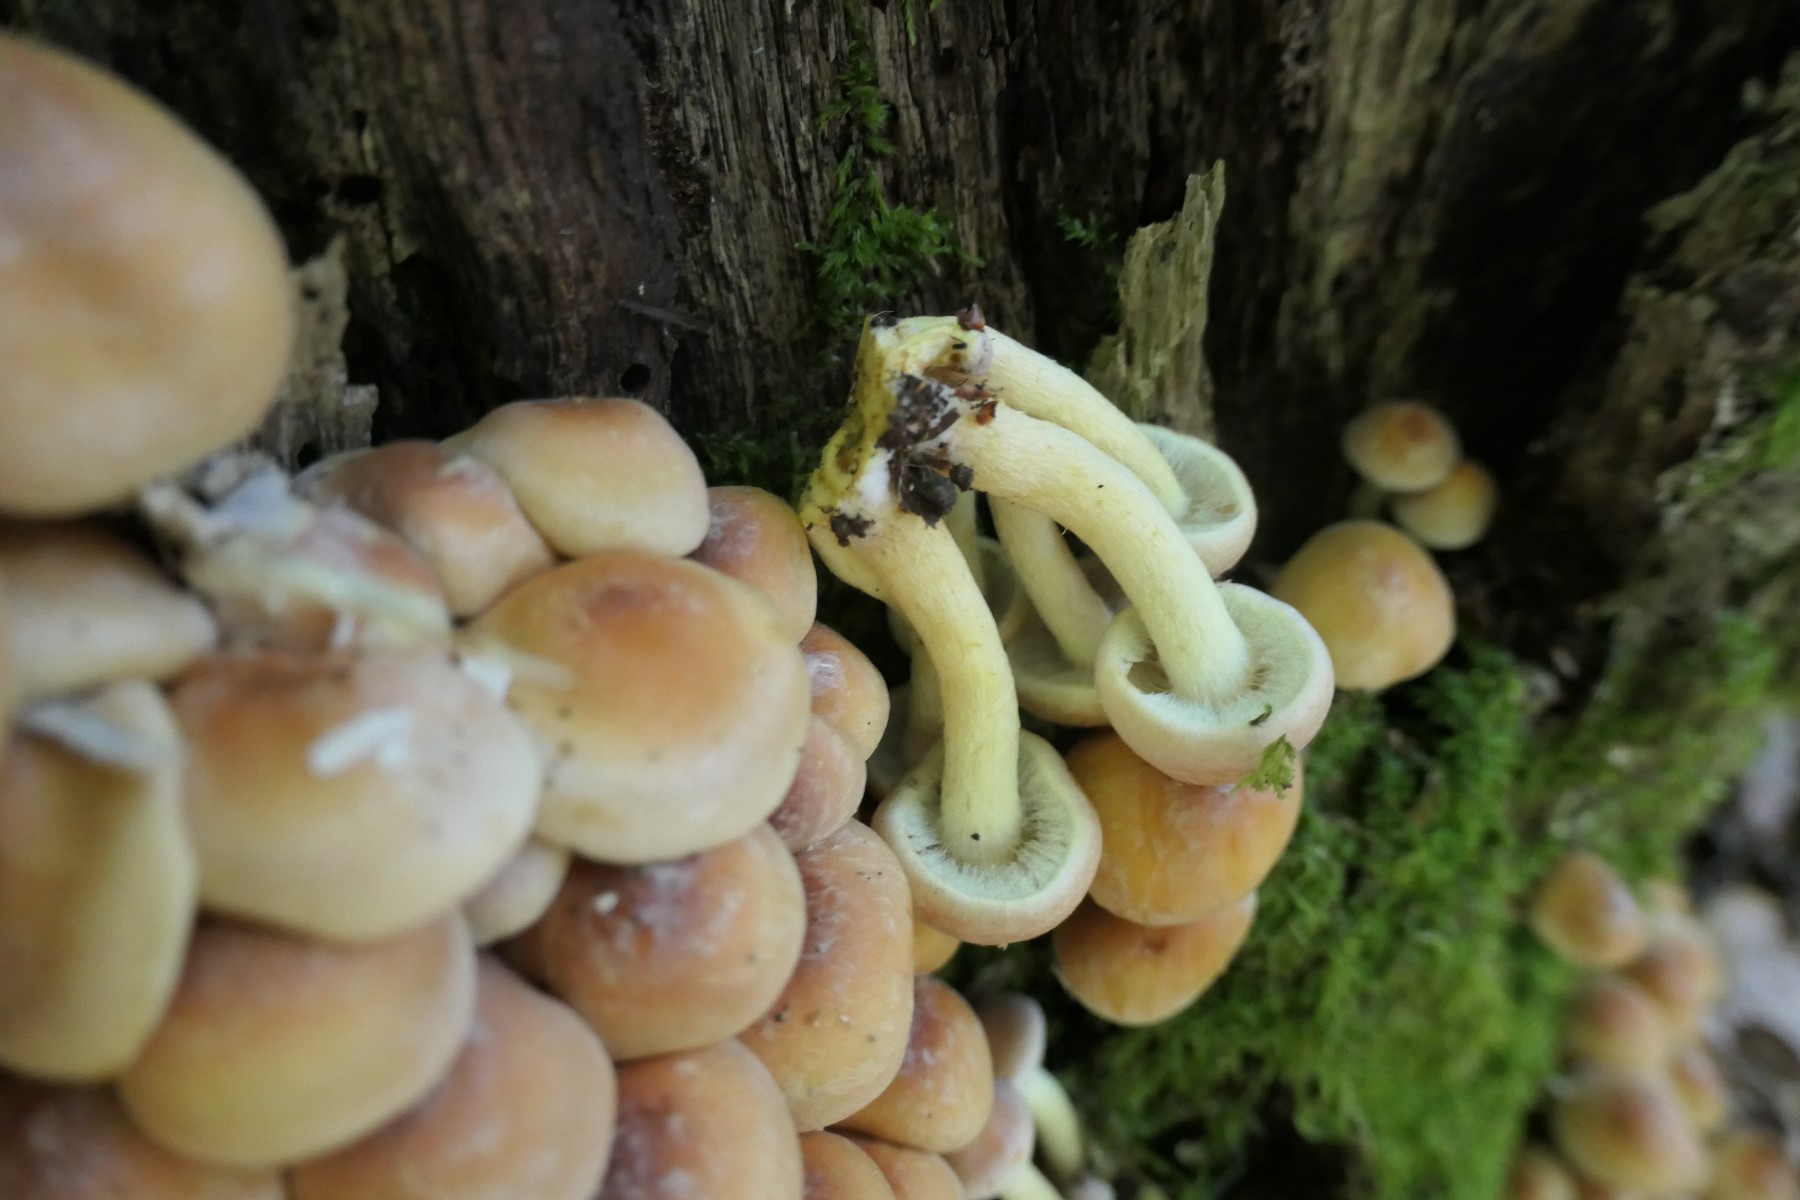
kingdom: Fungi
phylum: Basidiomycota
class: Agaricomycetes
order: Agaricales
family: Strophariaceae
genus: Hypholoma
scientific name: Hypholoma fasciculare
